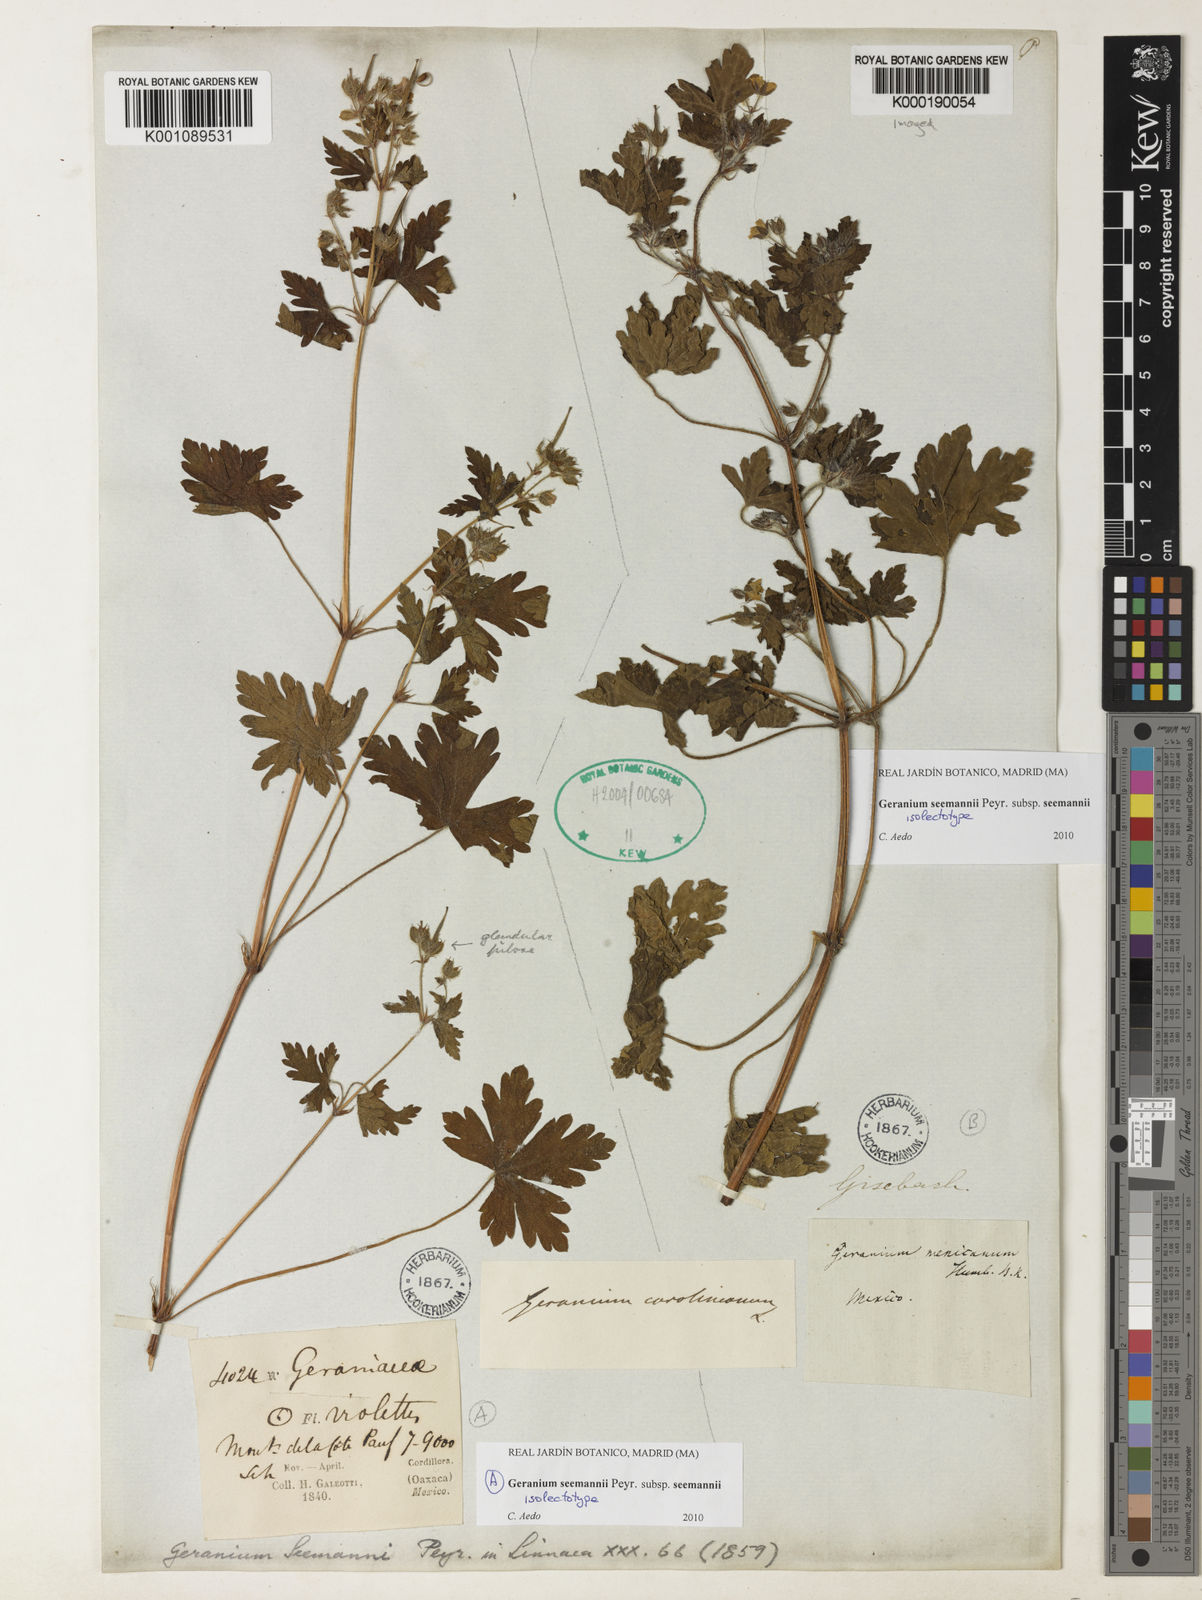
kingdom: Plantae
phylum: Tracheophyta
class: Magnoliopsida
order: Geraniales
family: Geraniaceae
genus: Geranium
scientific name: Geranium seemannii
